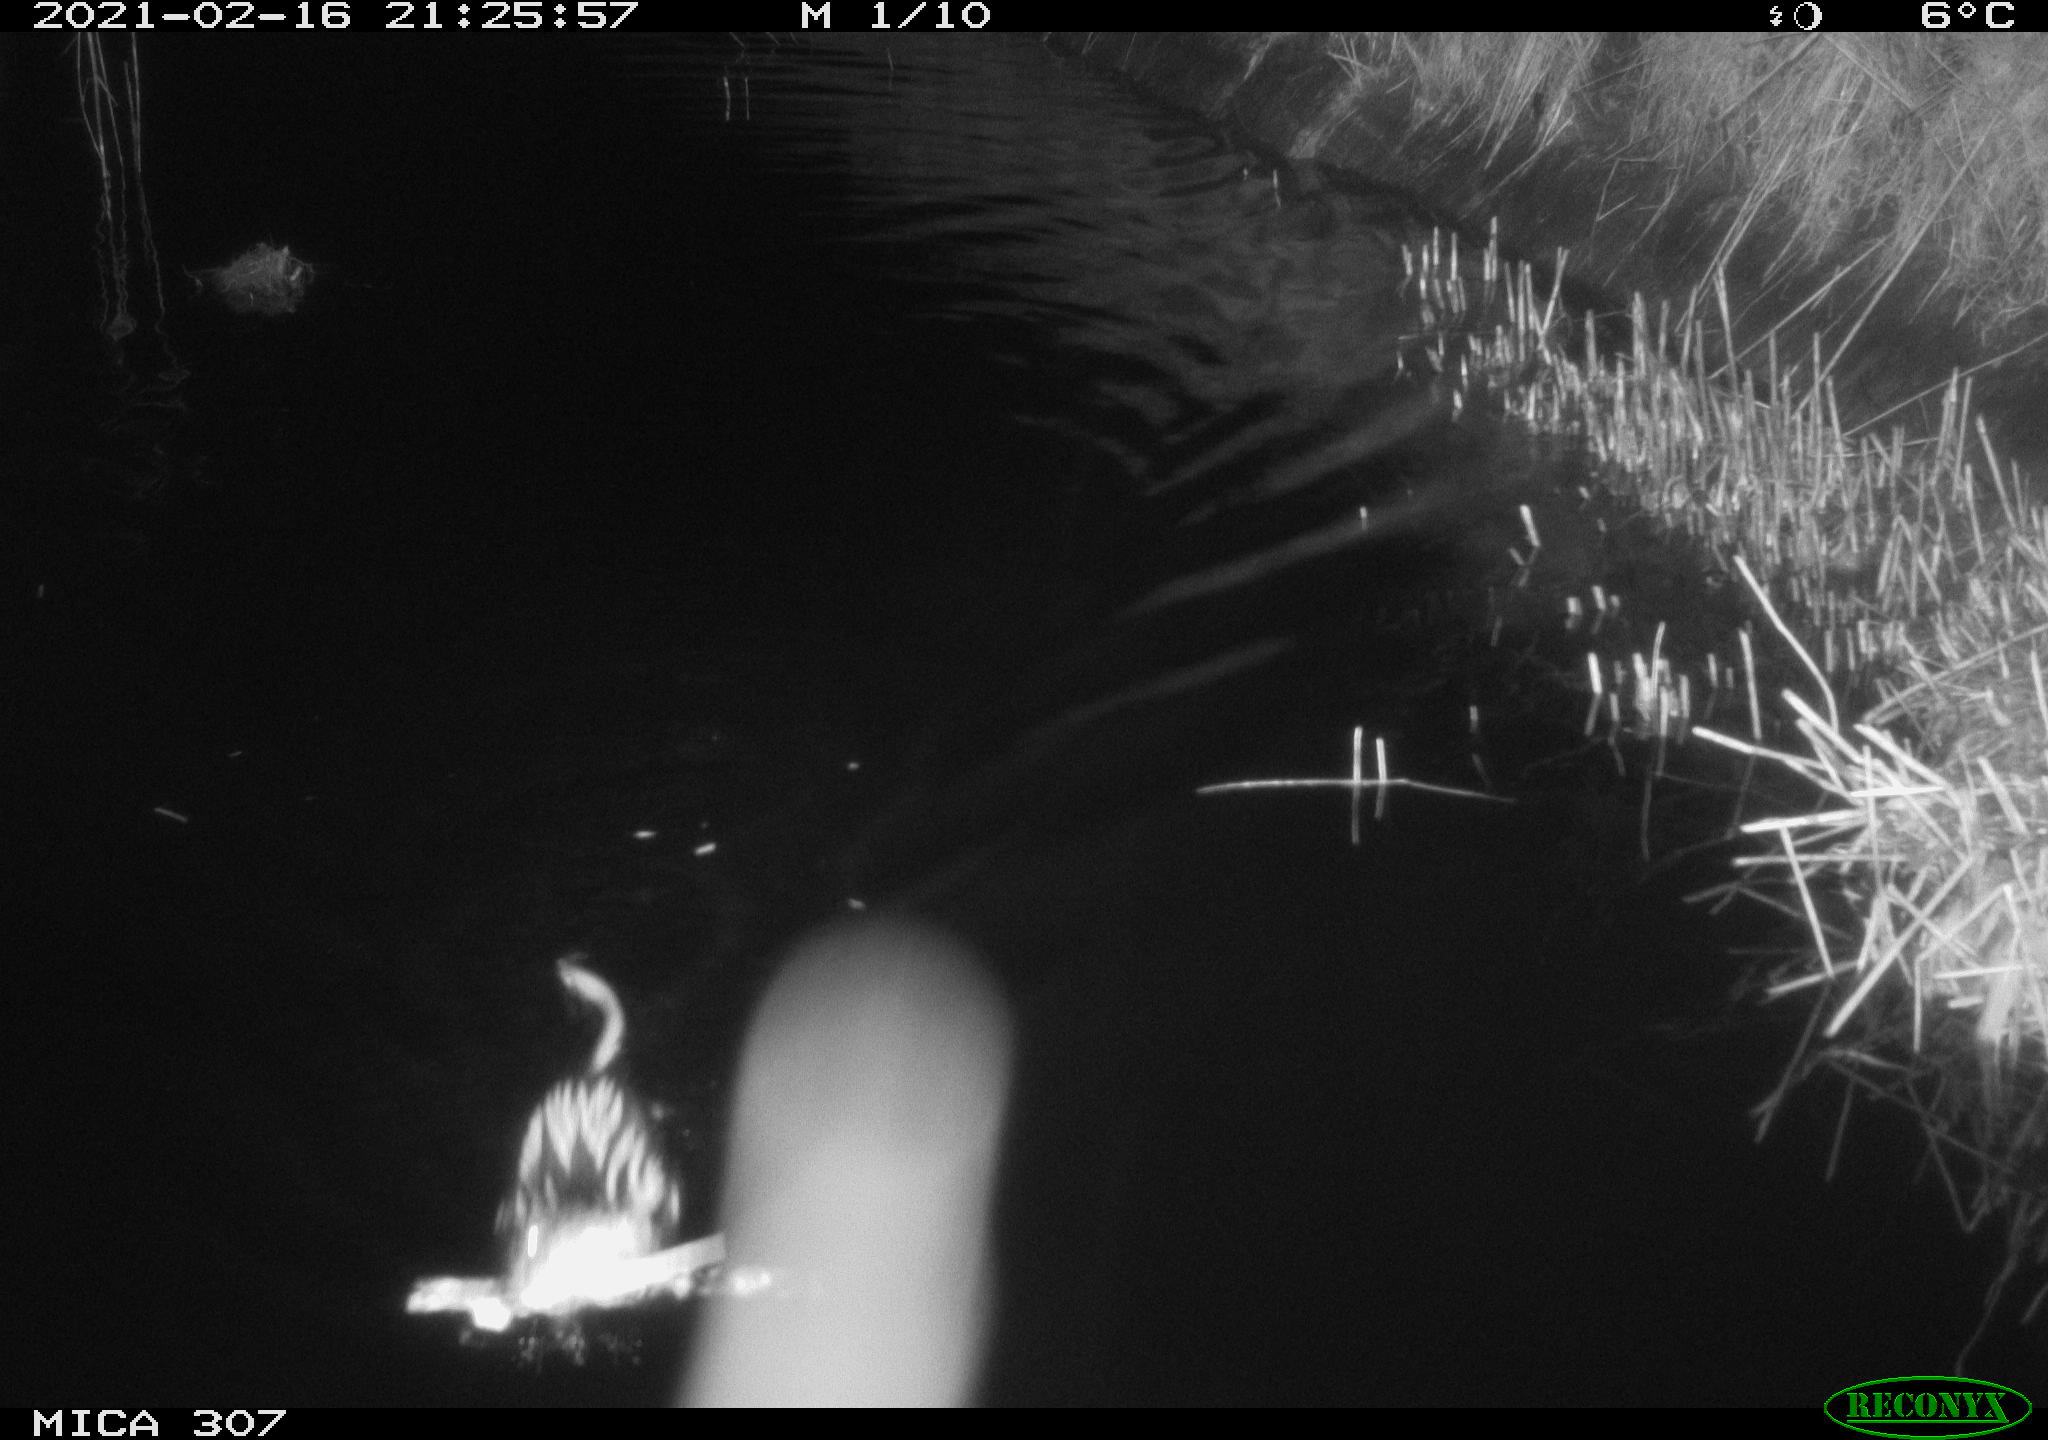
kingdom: Animalia
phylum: Chordata
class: Mammalia
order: Rodentia
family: Cricetidae
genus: Ondatra
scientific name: Ondatra zibethicus
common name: Muskrat
